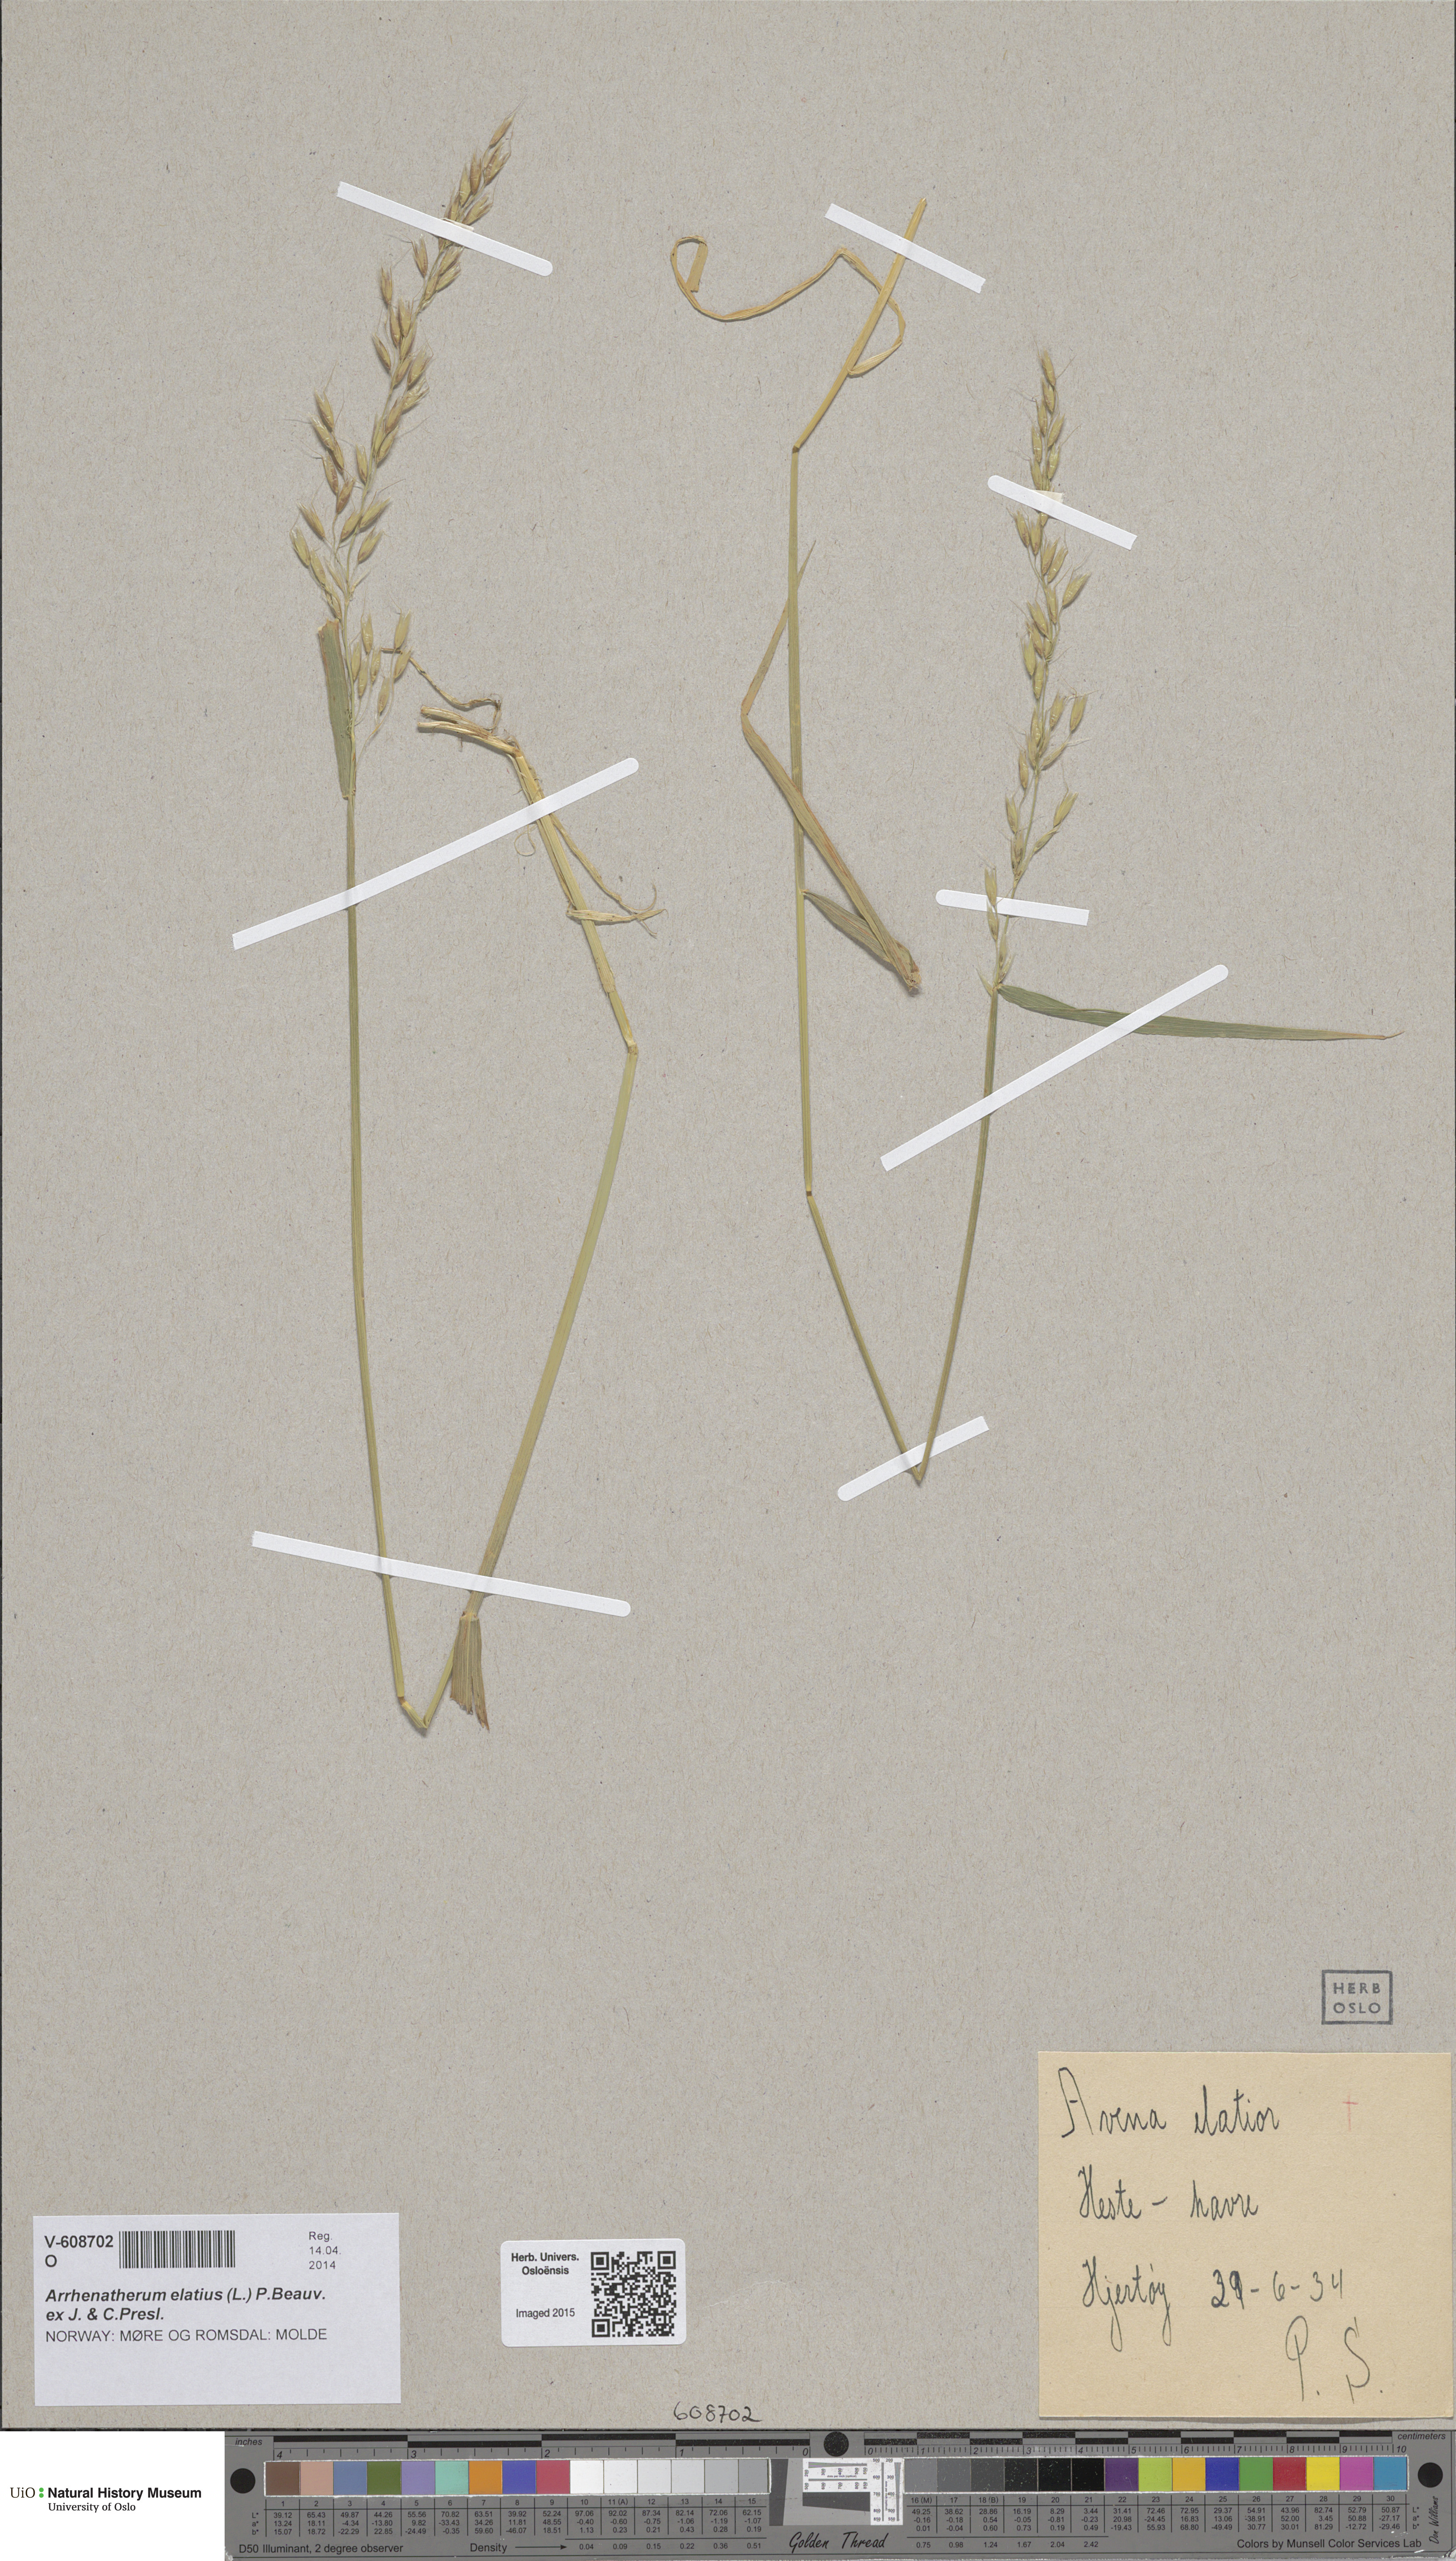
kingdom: Plantae
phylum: Tracheophyta
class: Liliopsida
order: Poales
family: Poaceae
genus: Arrhenatherum
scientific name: Arrhenatherum elatius
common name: Tall oatgrass
